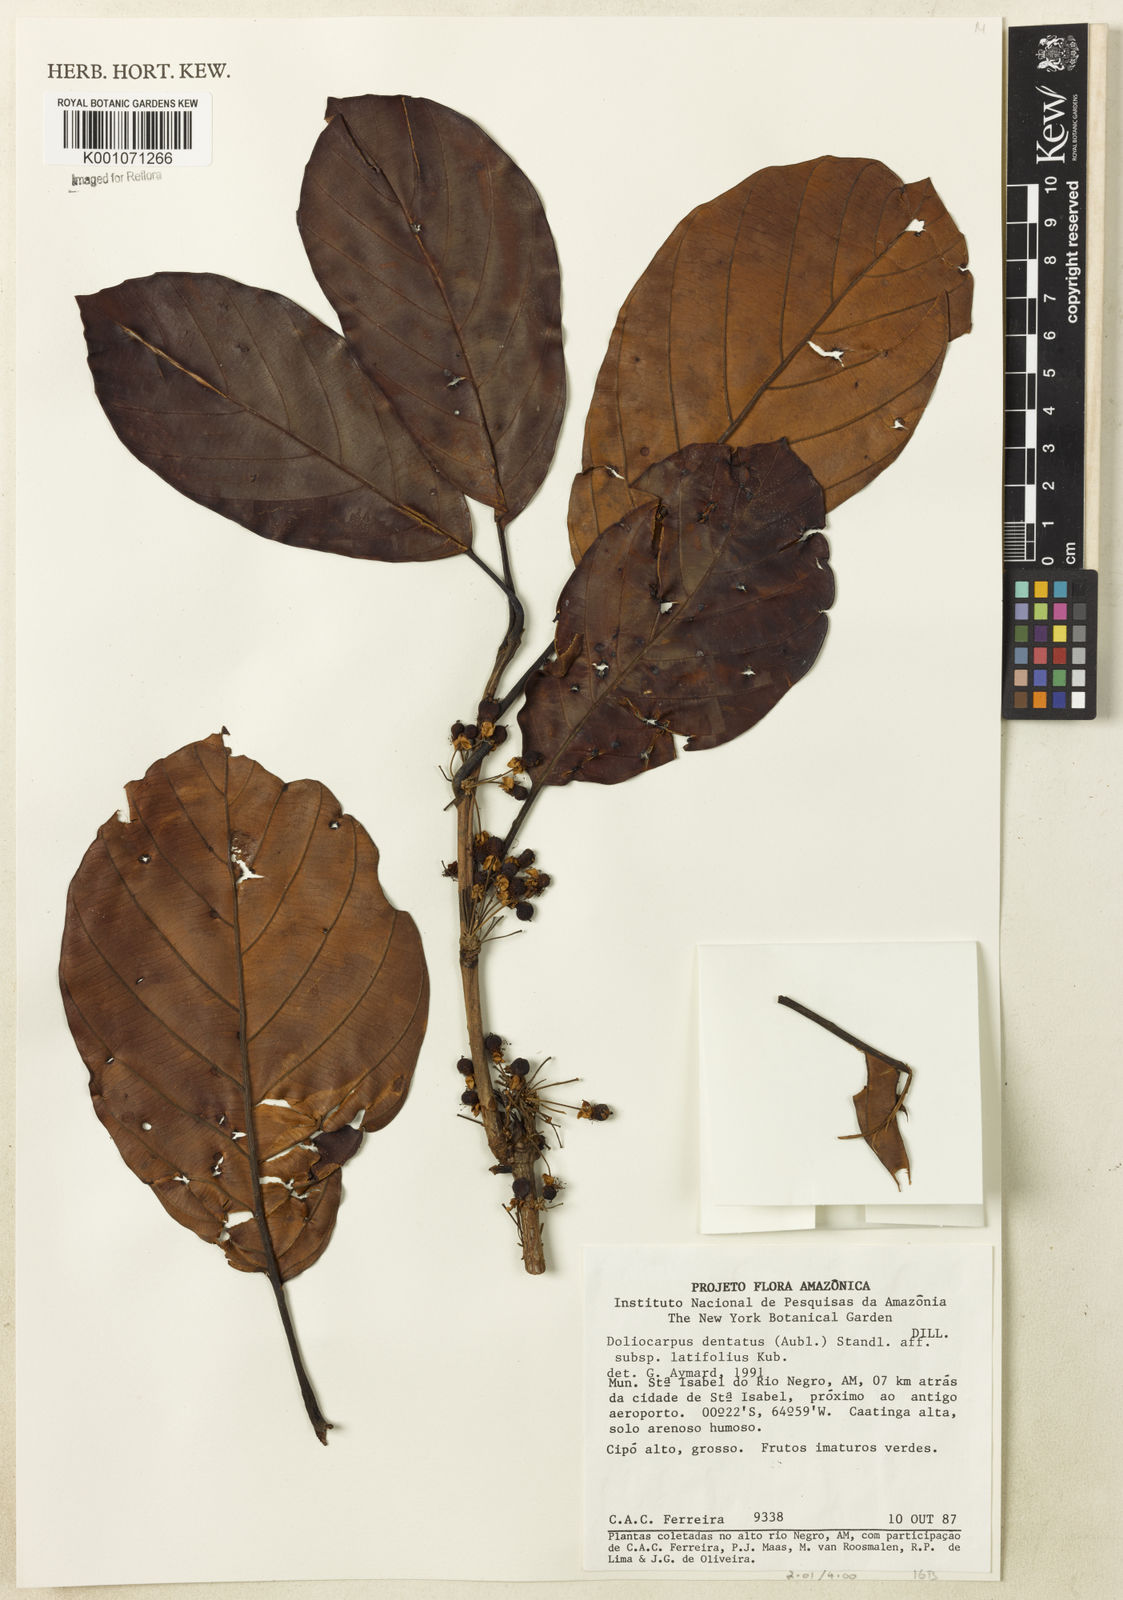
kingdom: Plantae
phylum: Tracheophyta
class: Magnoliopsida
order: Dilleniales
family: Dilleniaceae
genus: Doliocarpus
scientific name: Doliocarpus dentatus
